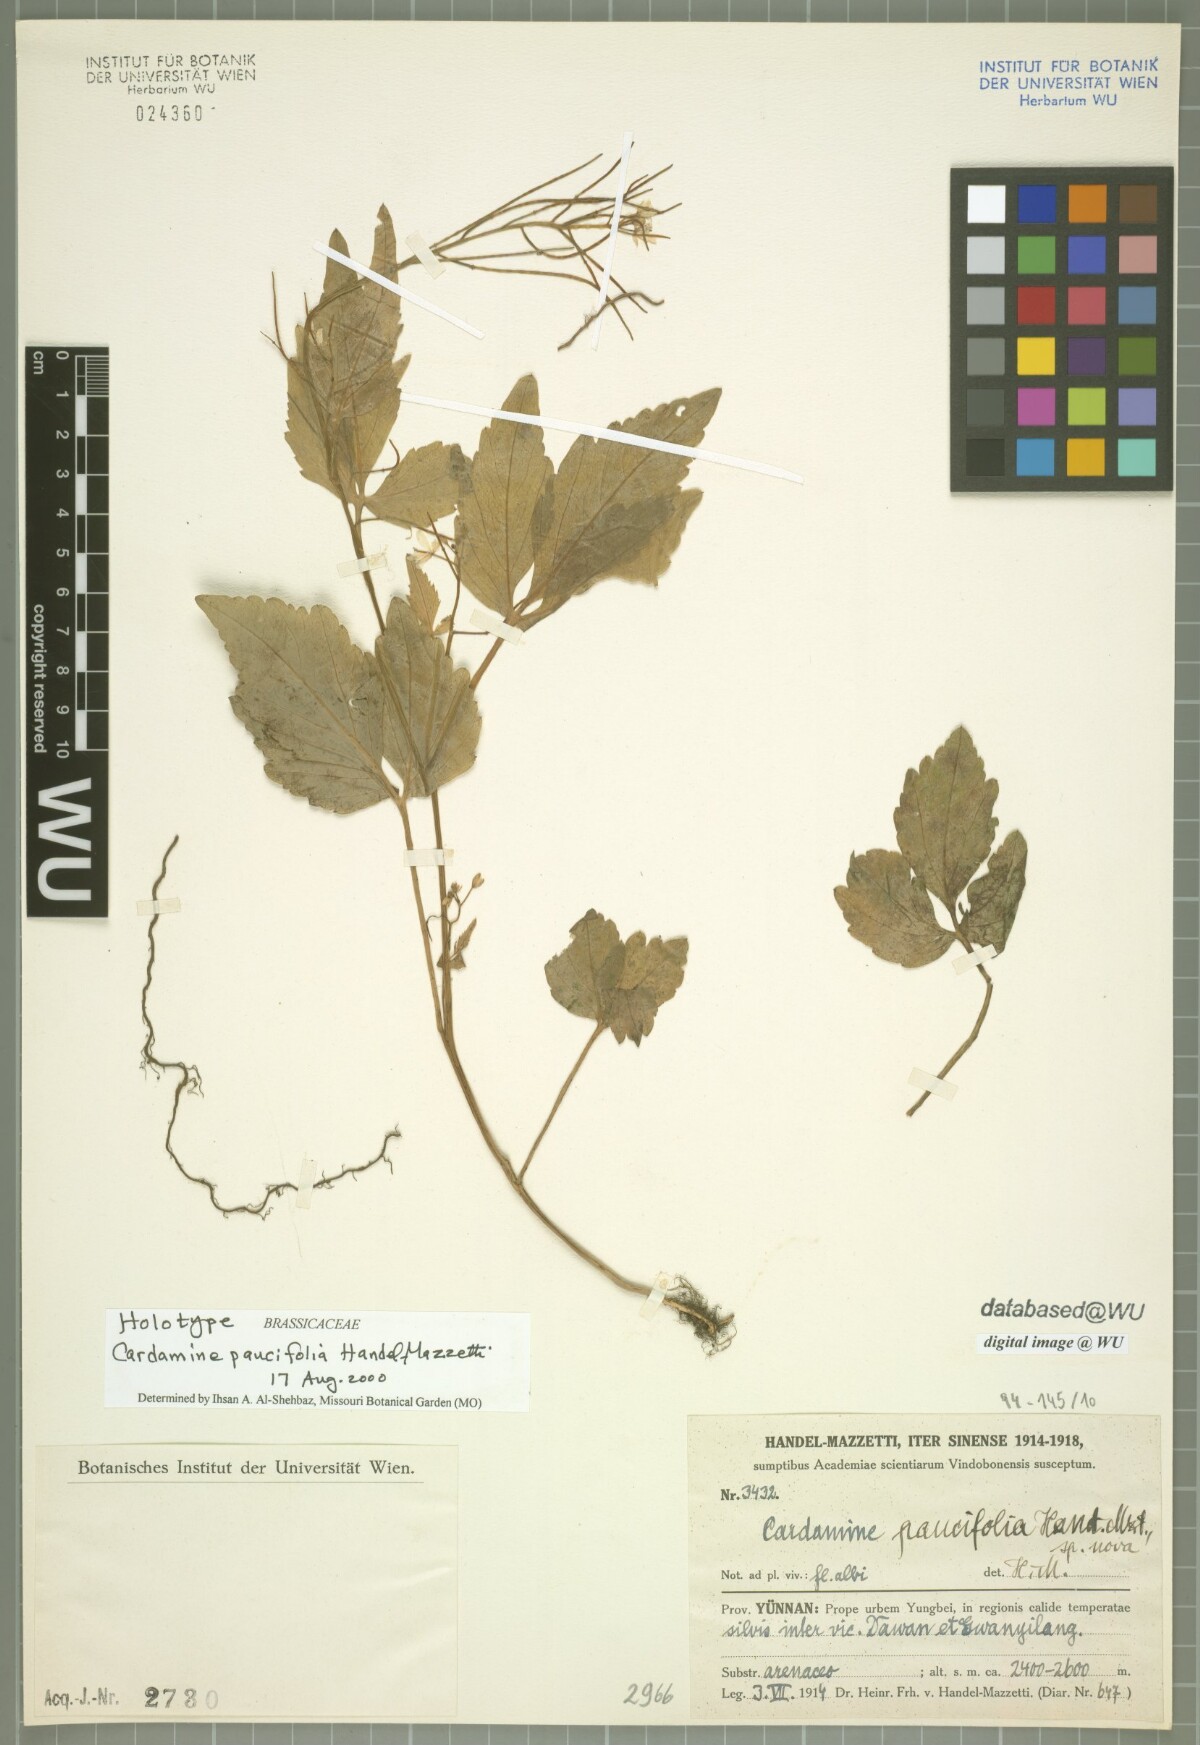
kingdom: Plantae
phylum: Tracheophyta
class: Magnoliopsida
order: Brassicales
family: Brassicaceae
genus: Cardamine
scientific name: Cardamine paucifolia
